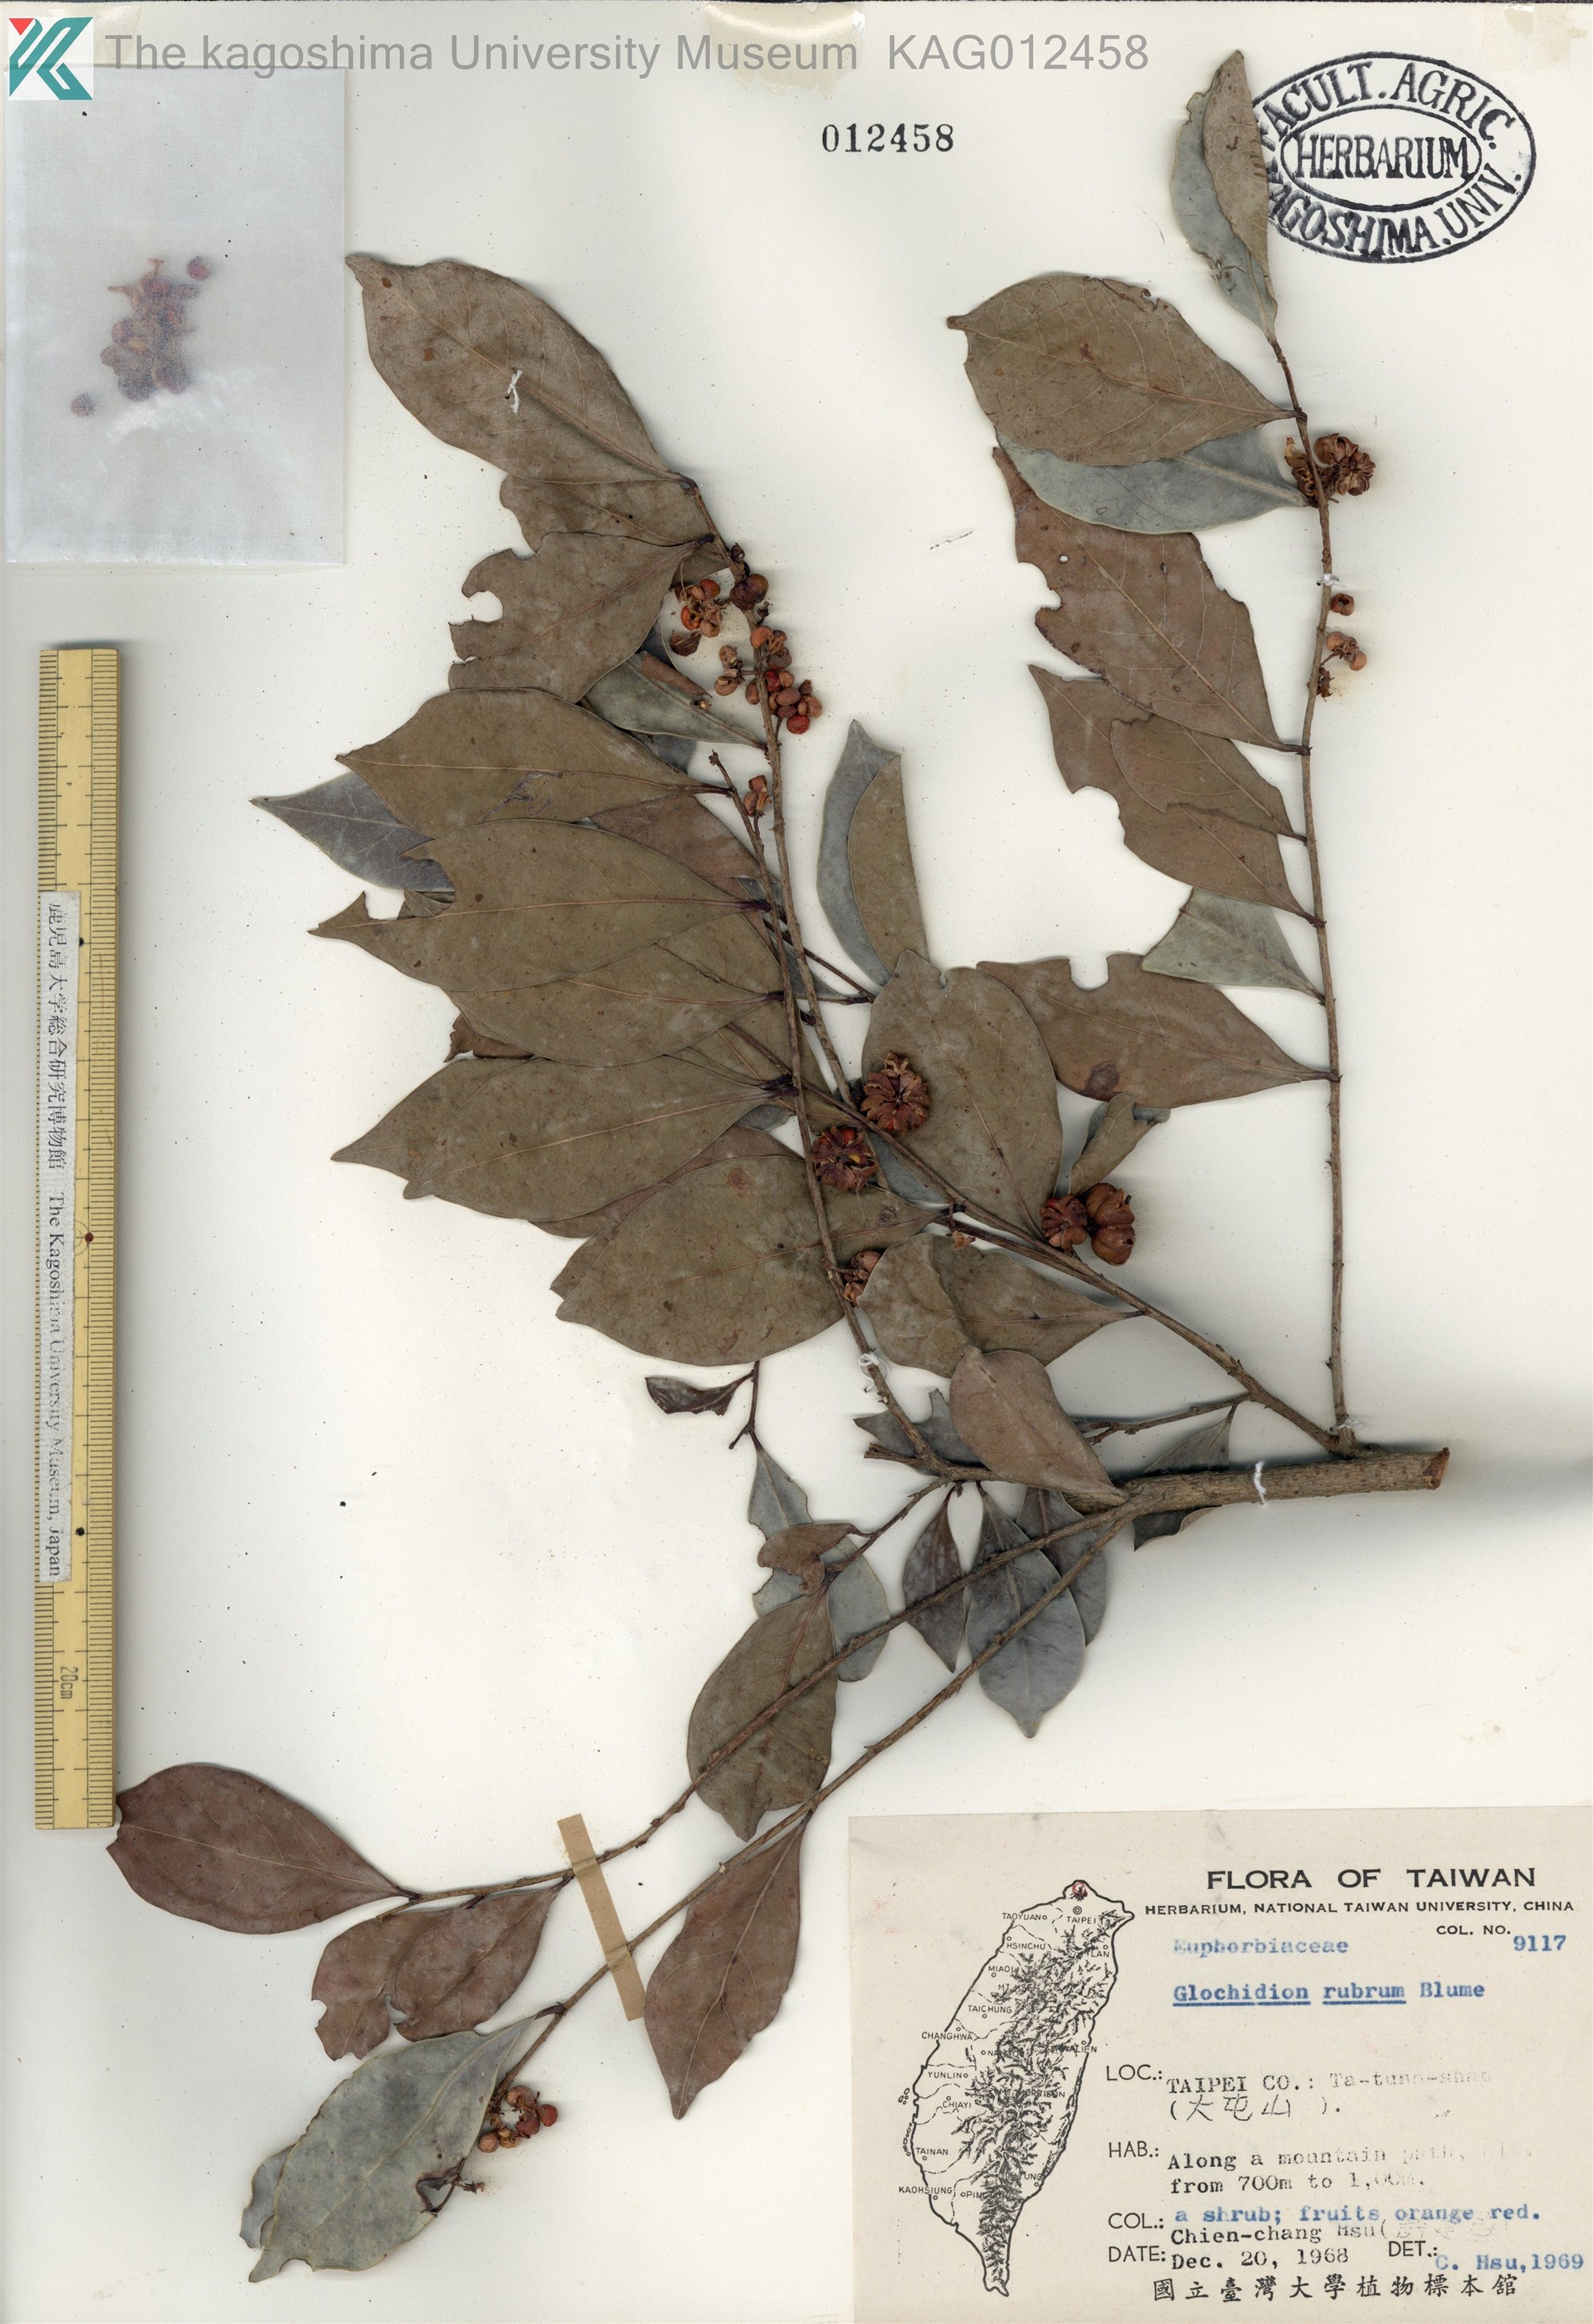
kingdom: Plantae
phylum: Tracheophyta
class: Magnoliopsida
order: Malpighiales
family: Phyllanthaceae
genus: Glochidion
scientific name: Glochidion rubrum
